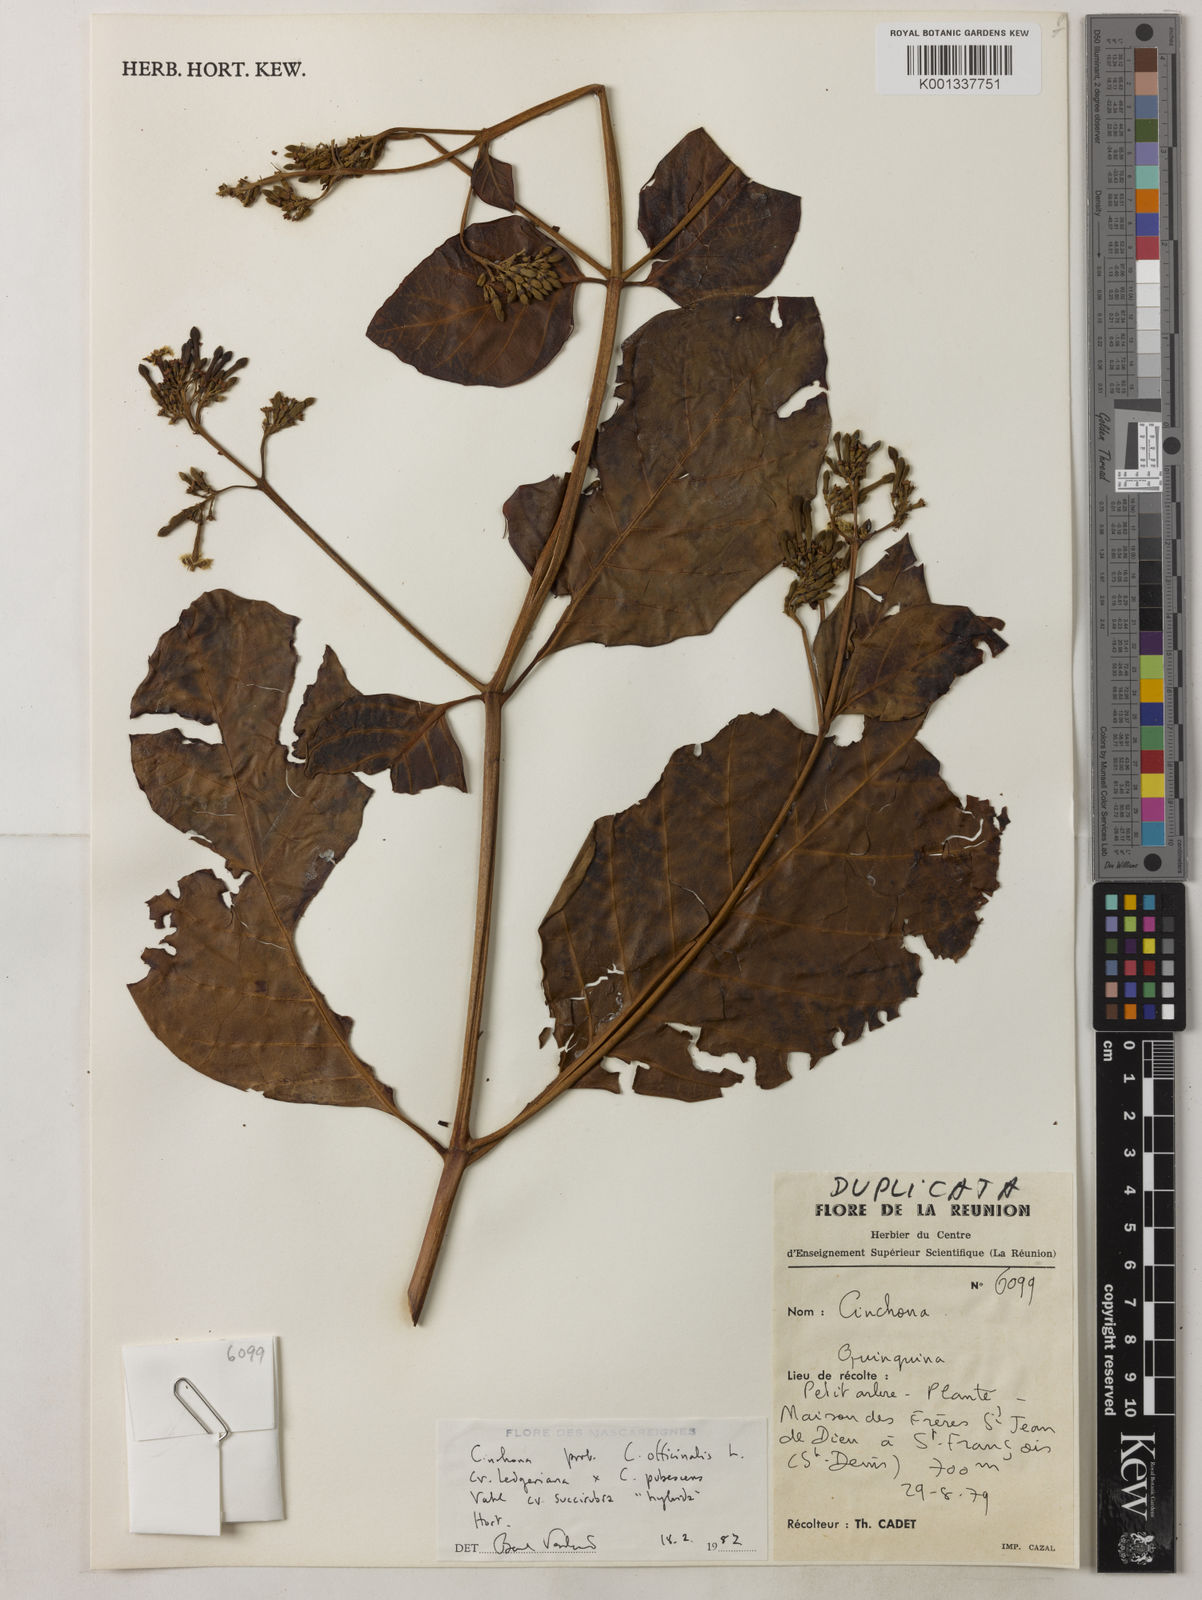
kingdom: Plantae
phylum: Tracheophyta
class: Magnoliopsida
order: Gentianales
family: Rubiaceae
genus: Cinchona
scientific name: Cinchona
